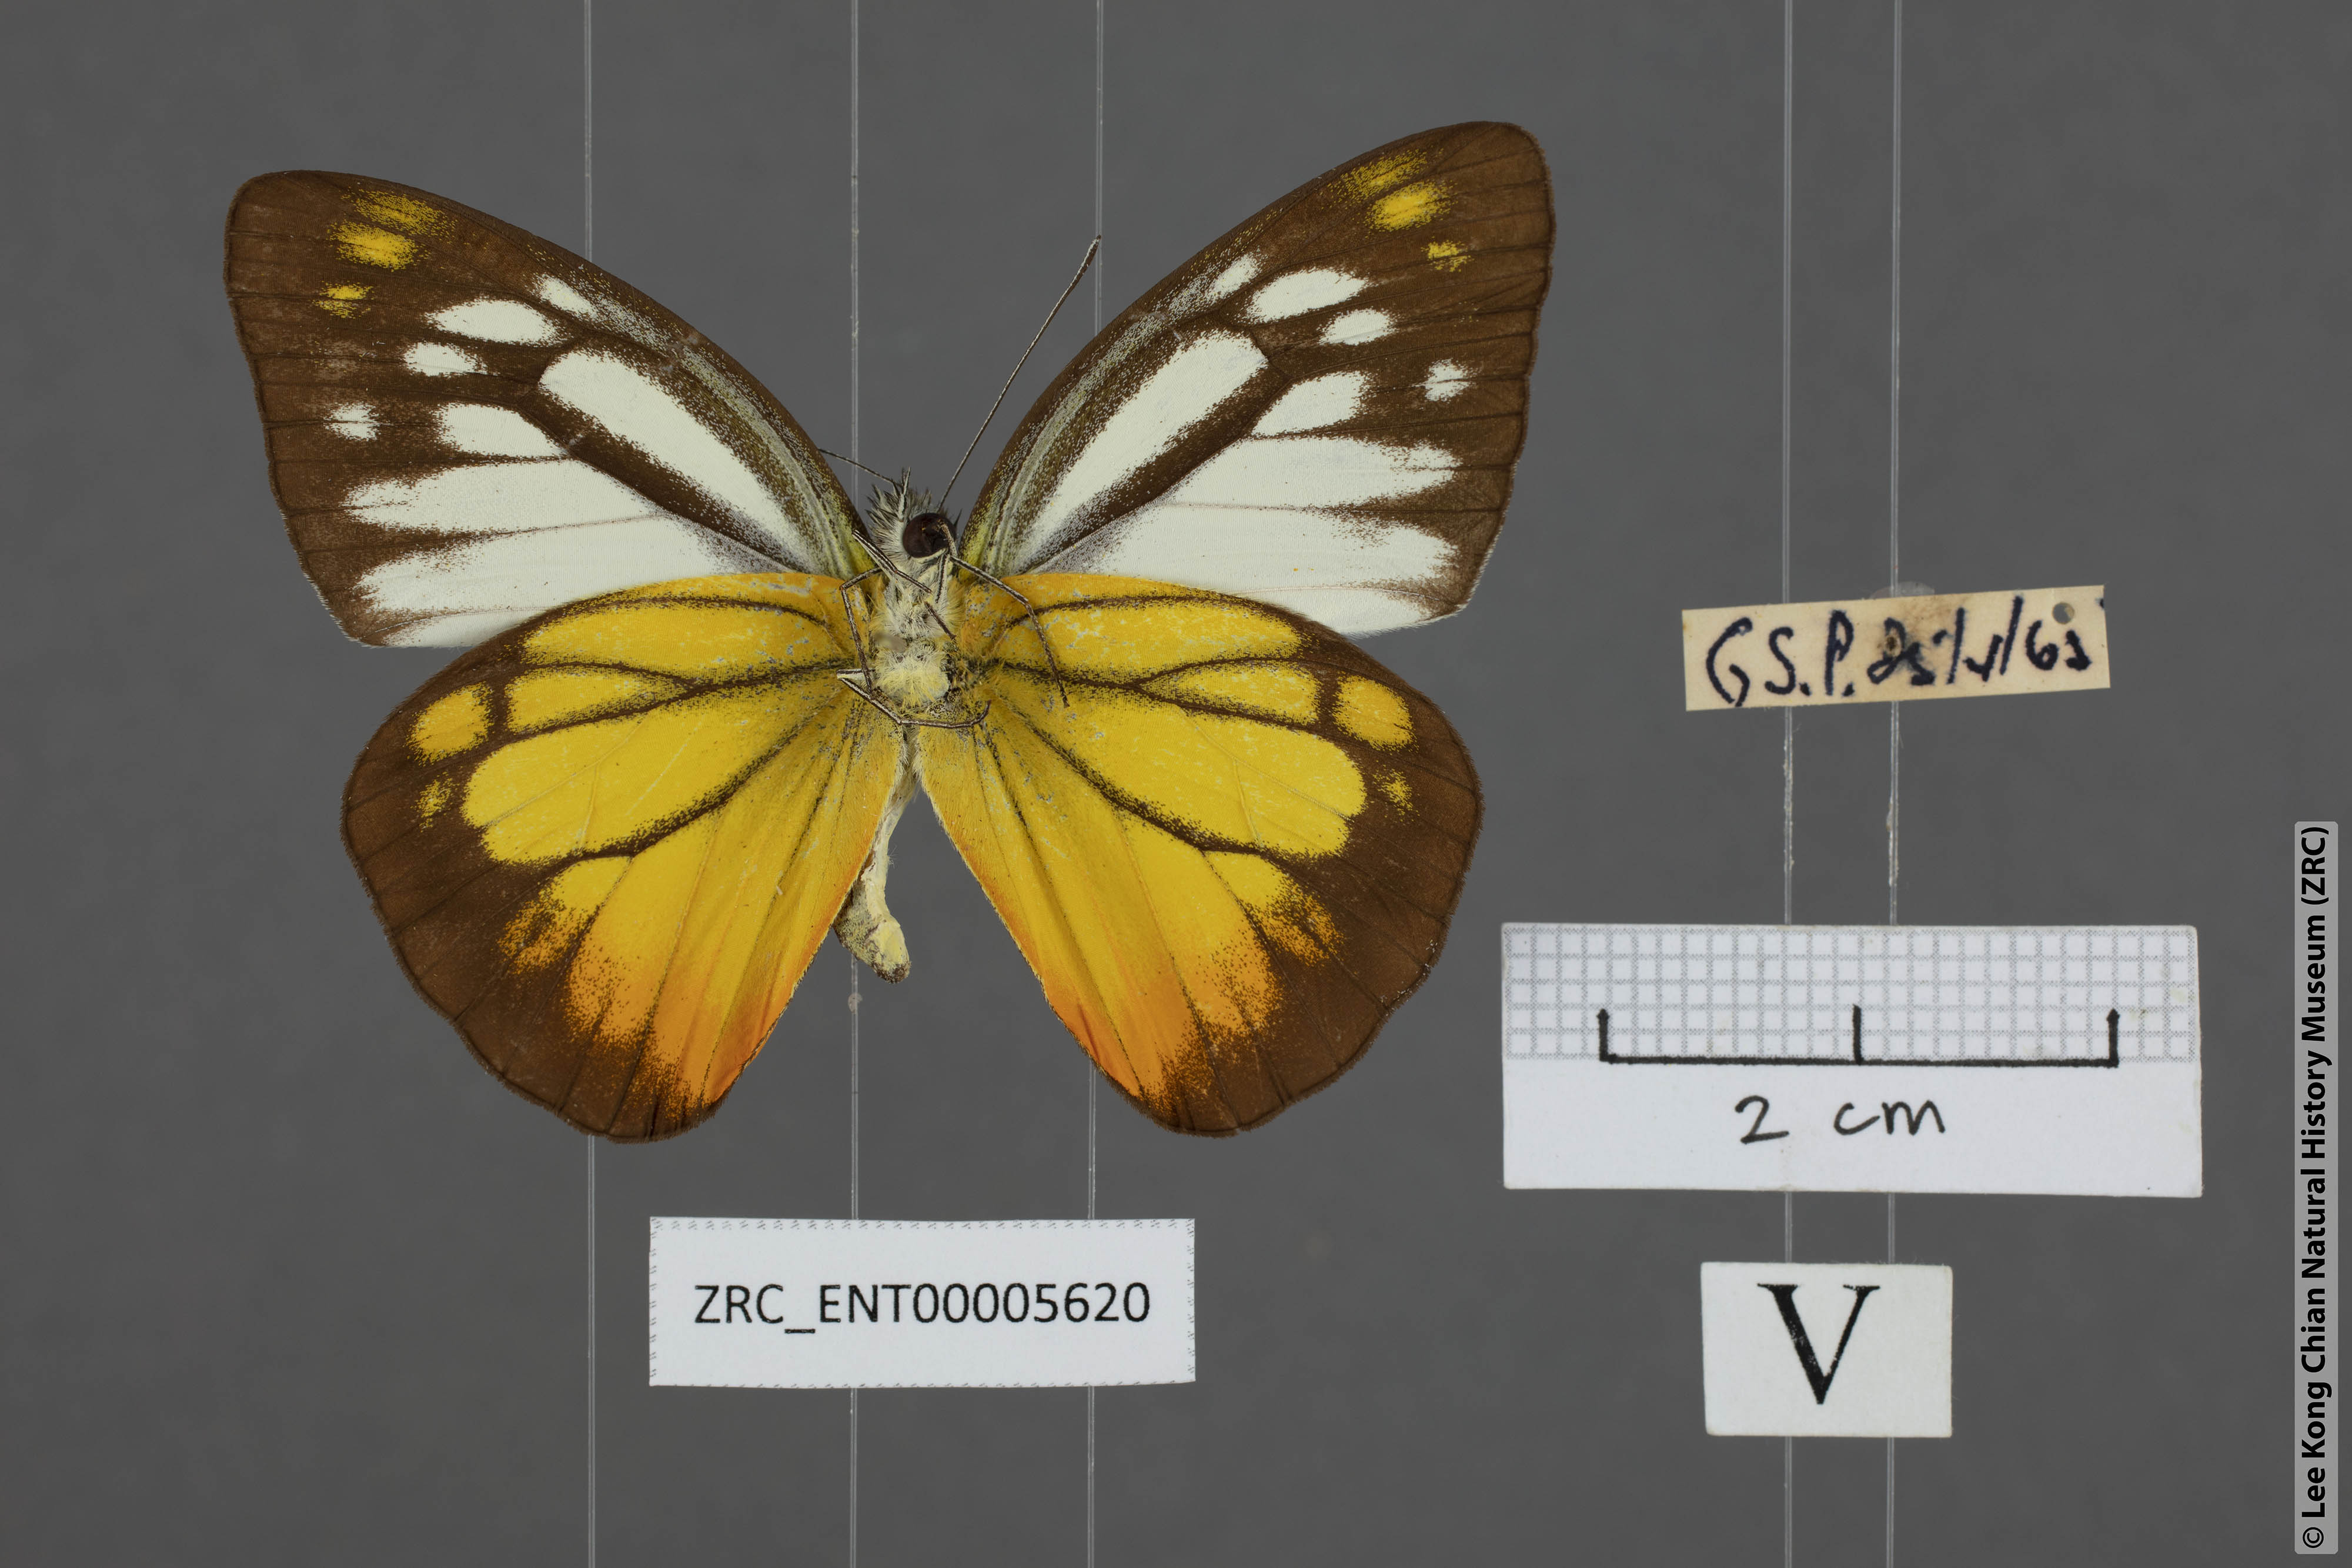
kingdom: Animalia
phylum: Arthropoda
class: Insecta
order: Lepidoptera
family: Pieridae
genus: Cepora
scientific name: Cepora iudith
